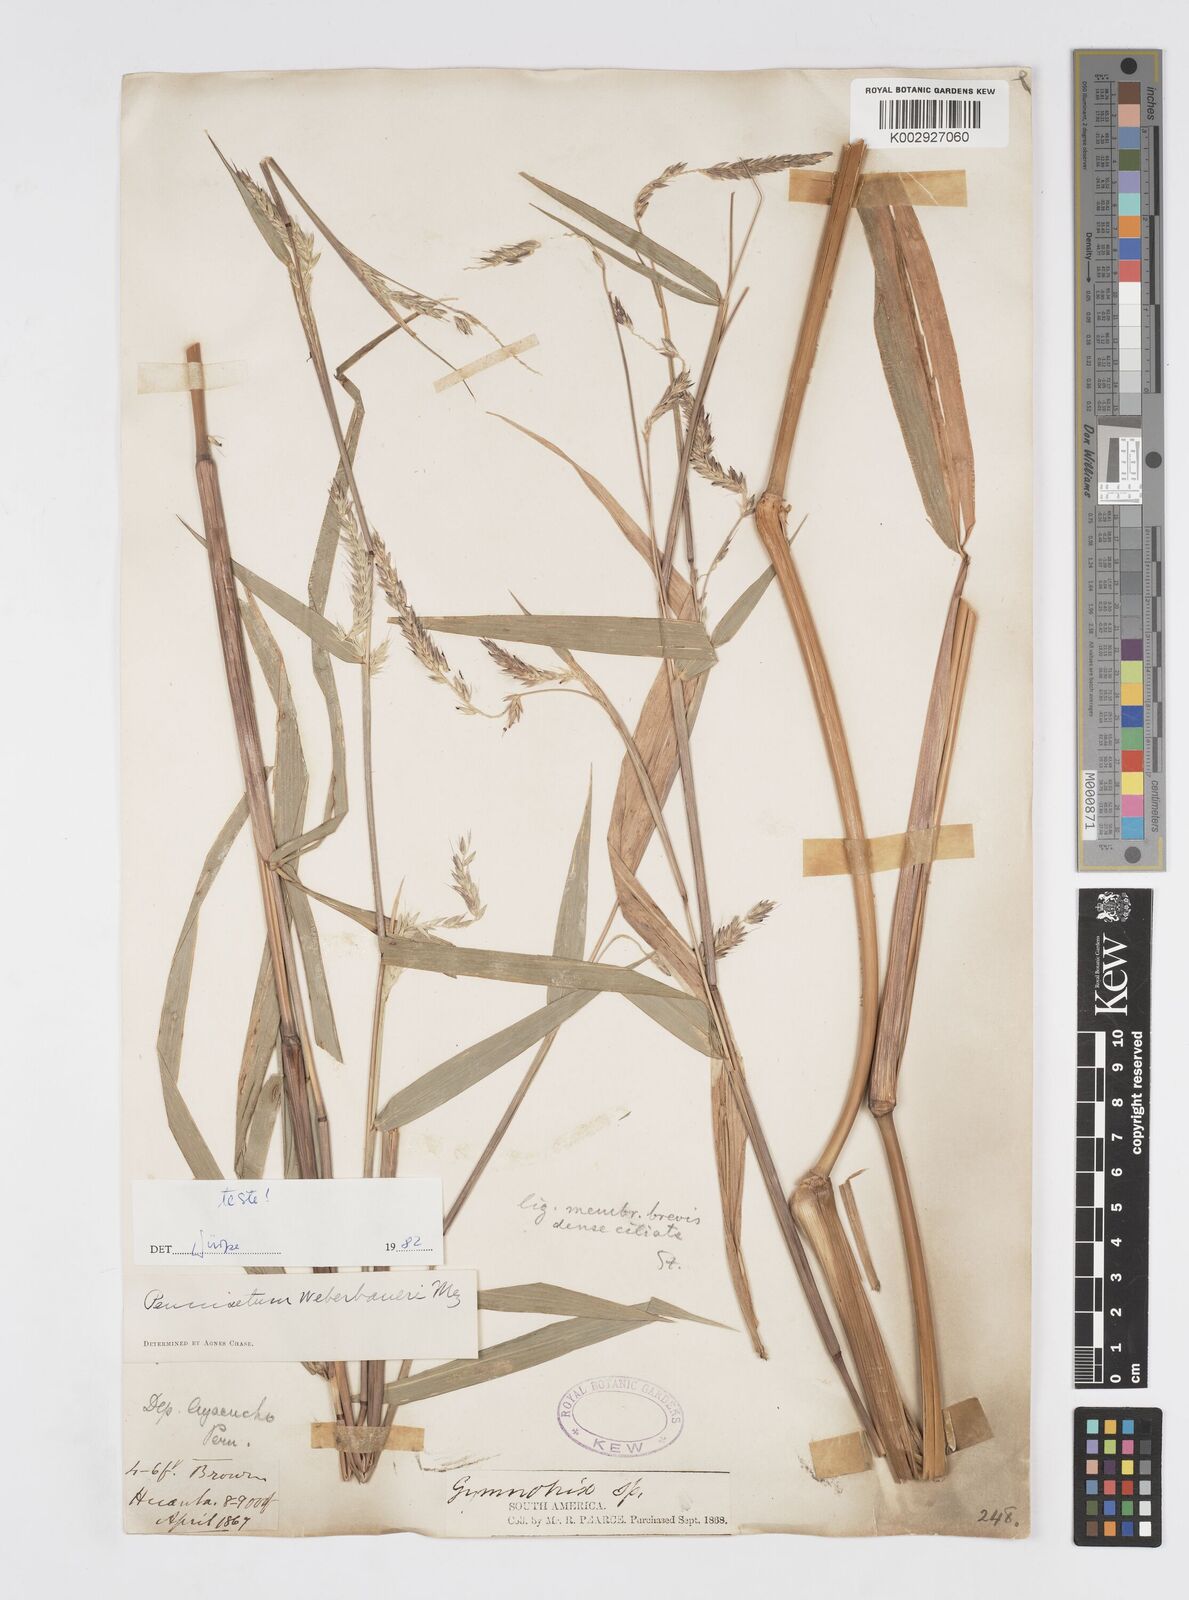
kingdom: Plantae
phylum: Tracheophyta
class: Liliopsida
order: Poales
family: Poaceae
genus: Cenchrus
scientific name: Cenchrus weberbaueri
